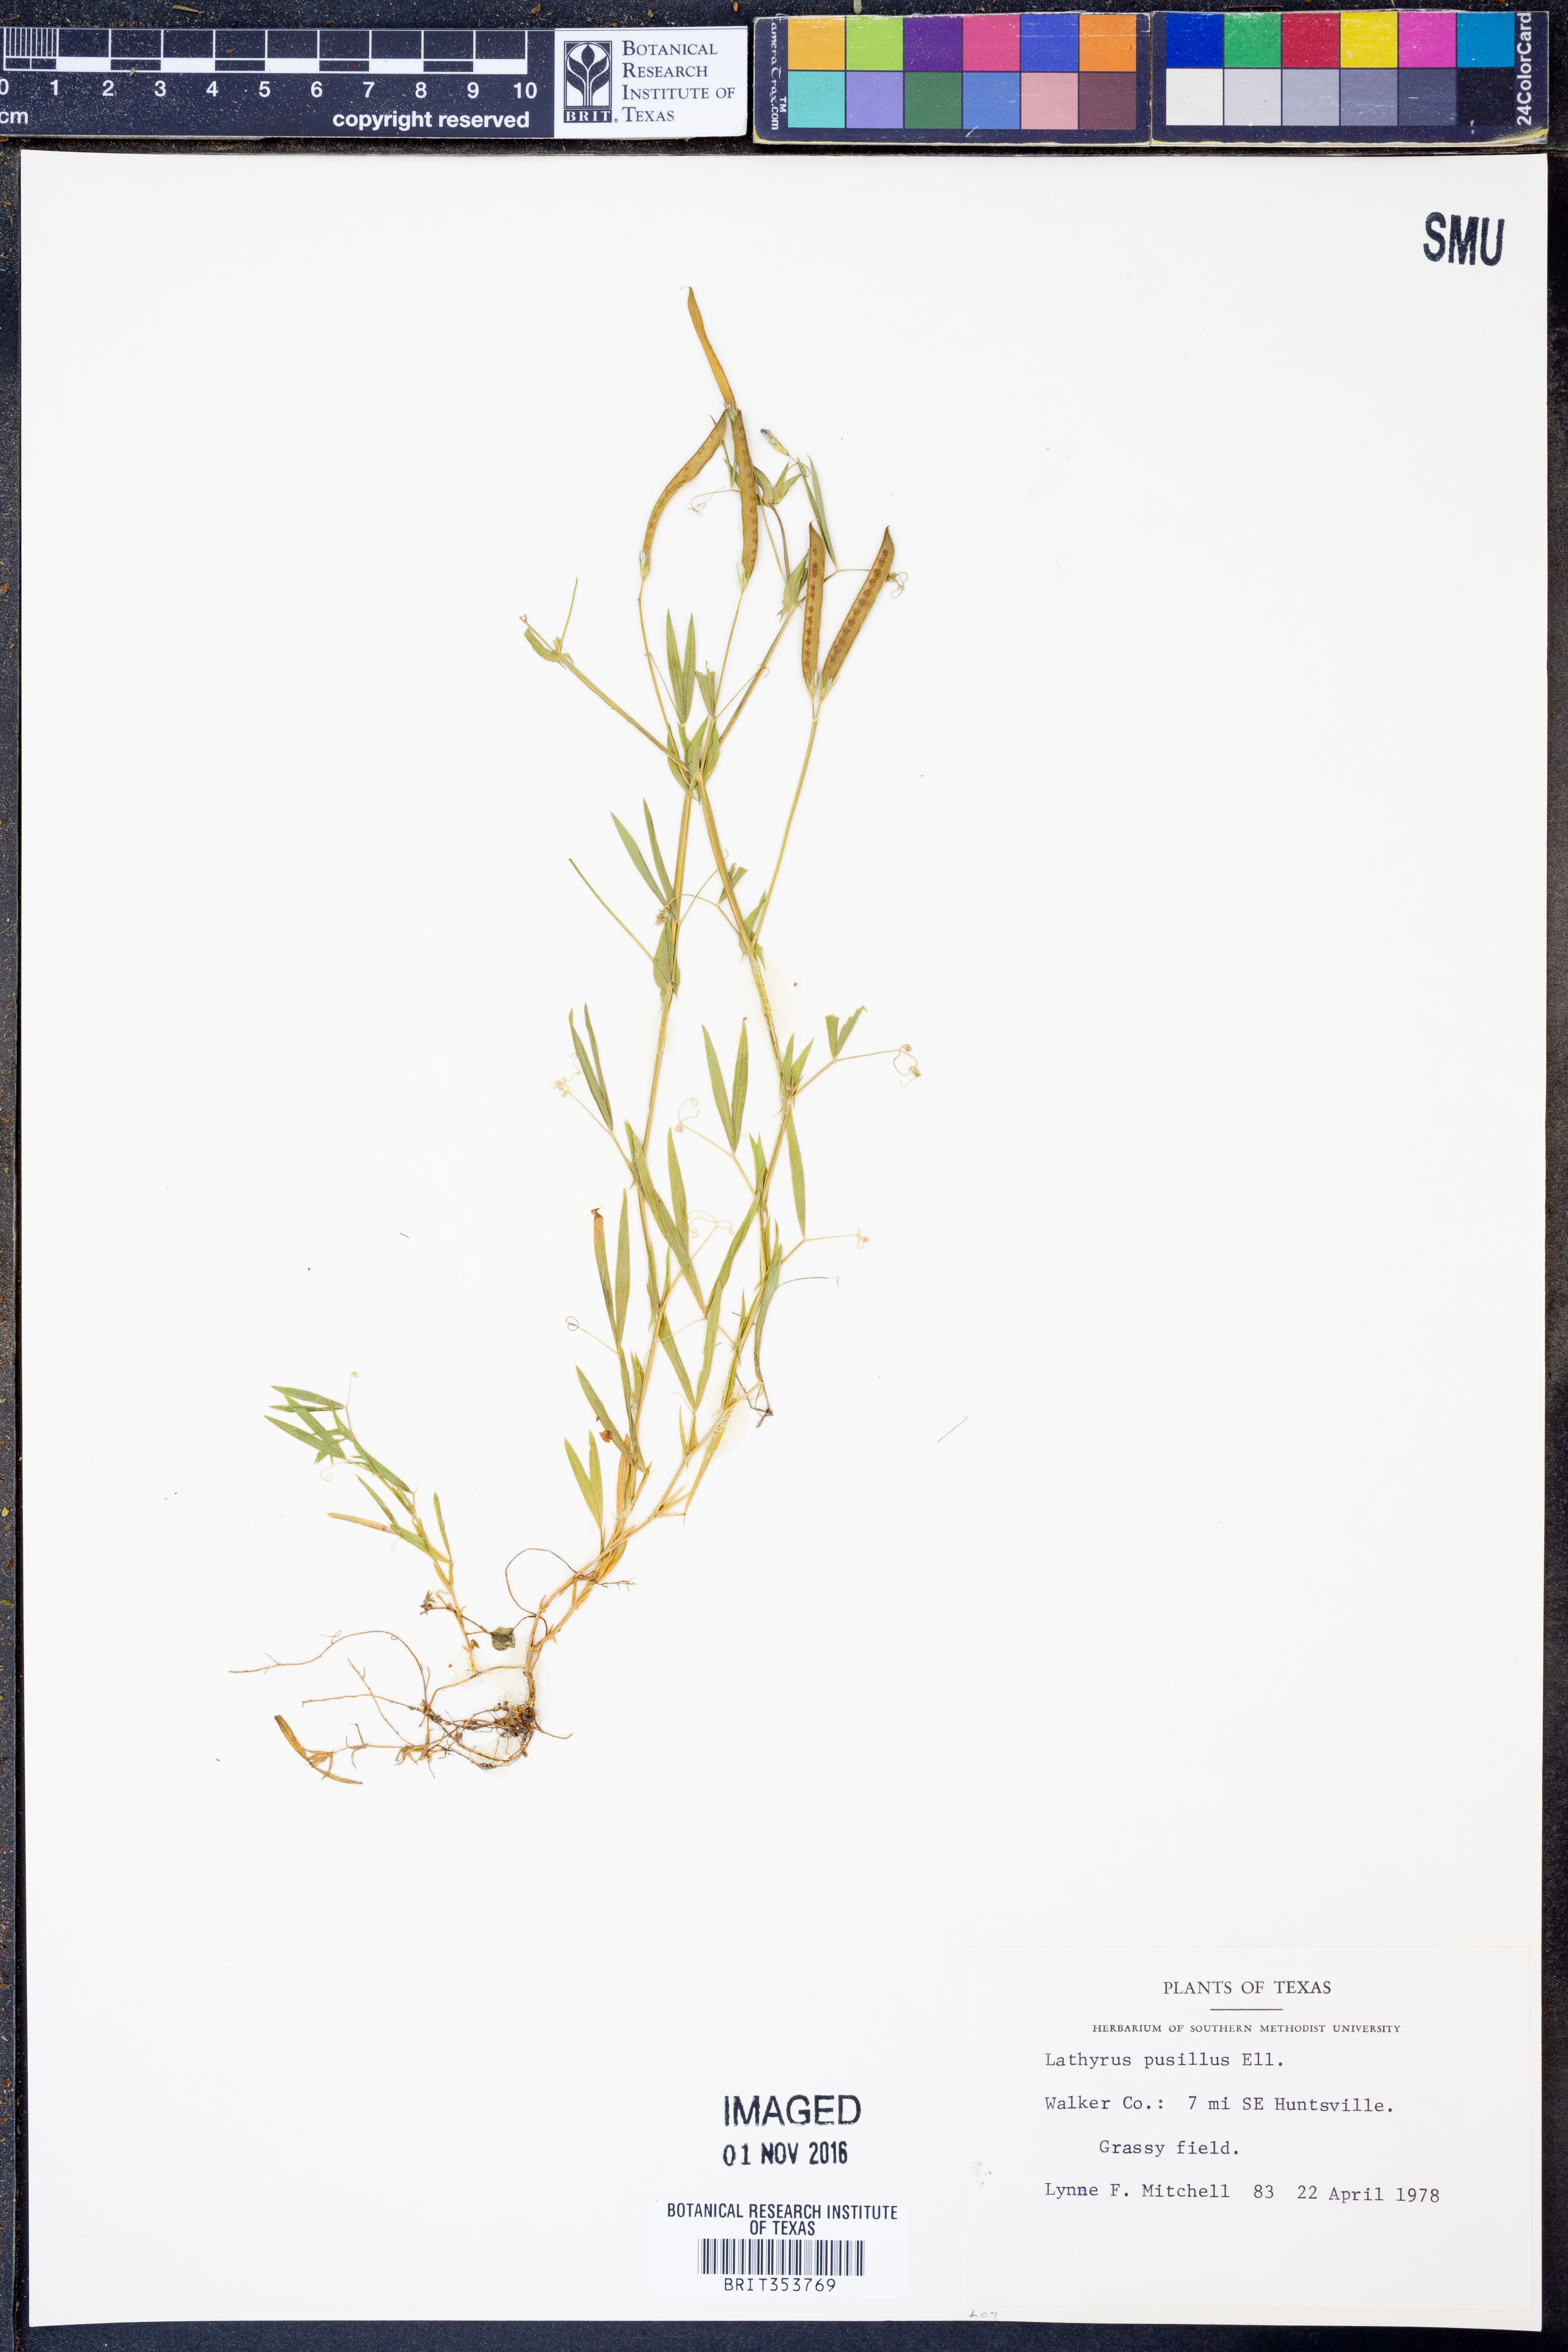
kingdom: Plantae
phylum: Tracheophyta
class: Magnoliopsida
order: Fabales
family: Fabaceae
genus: Lathyrus
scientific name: Lathyrus pusillus
